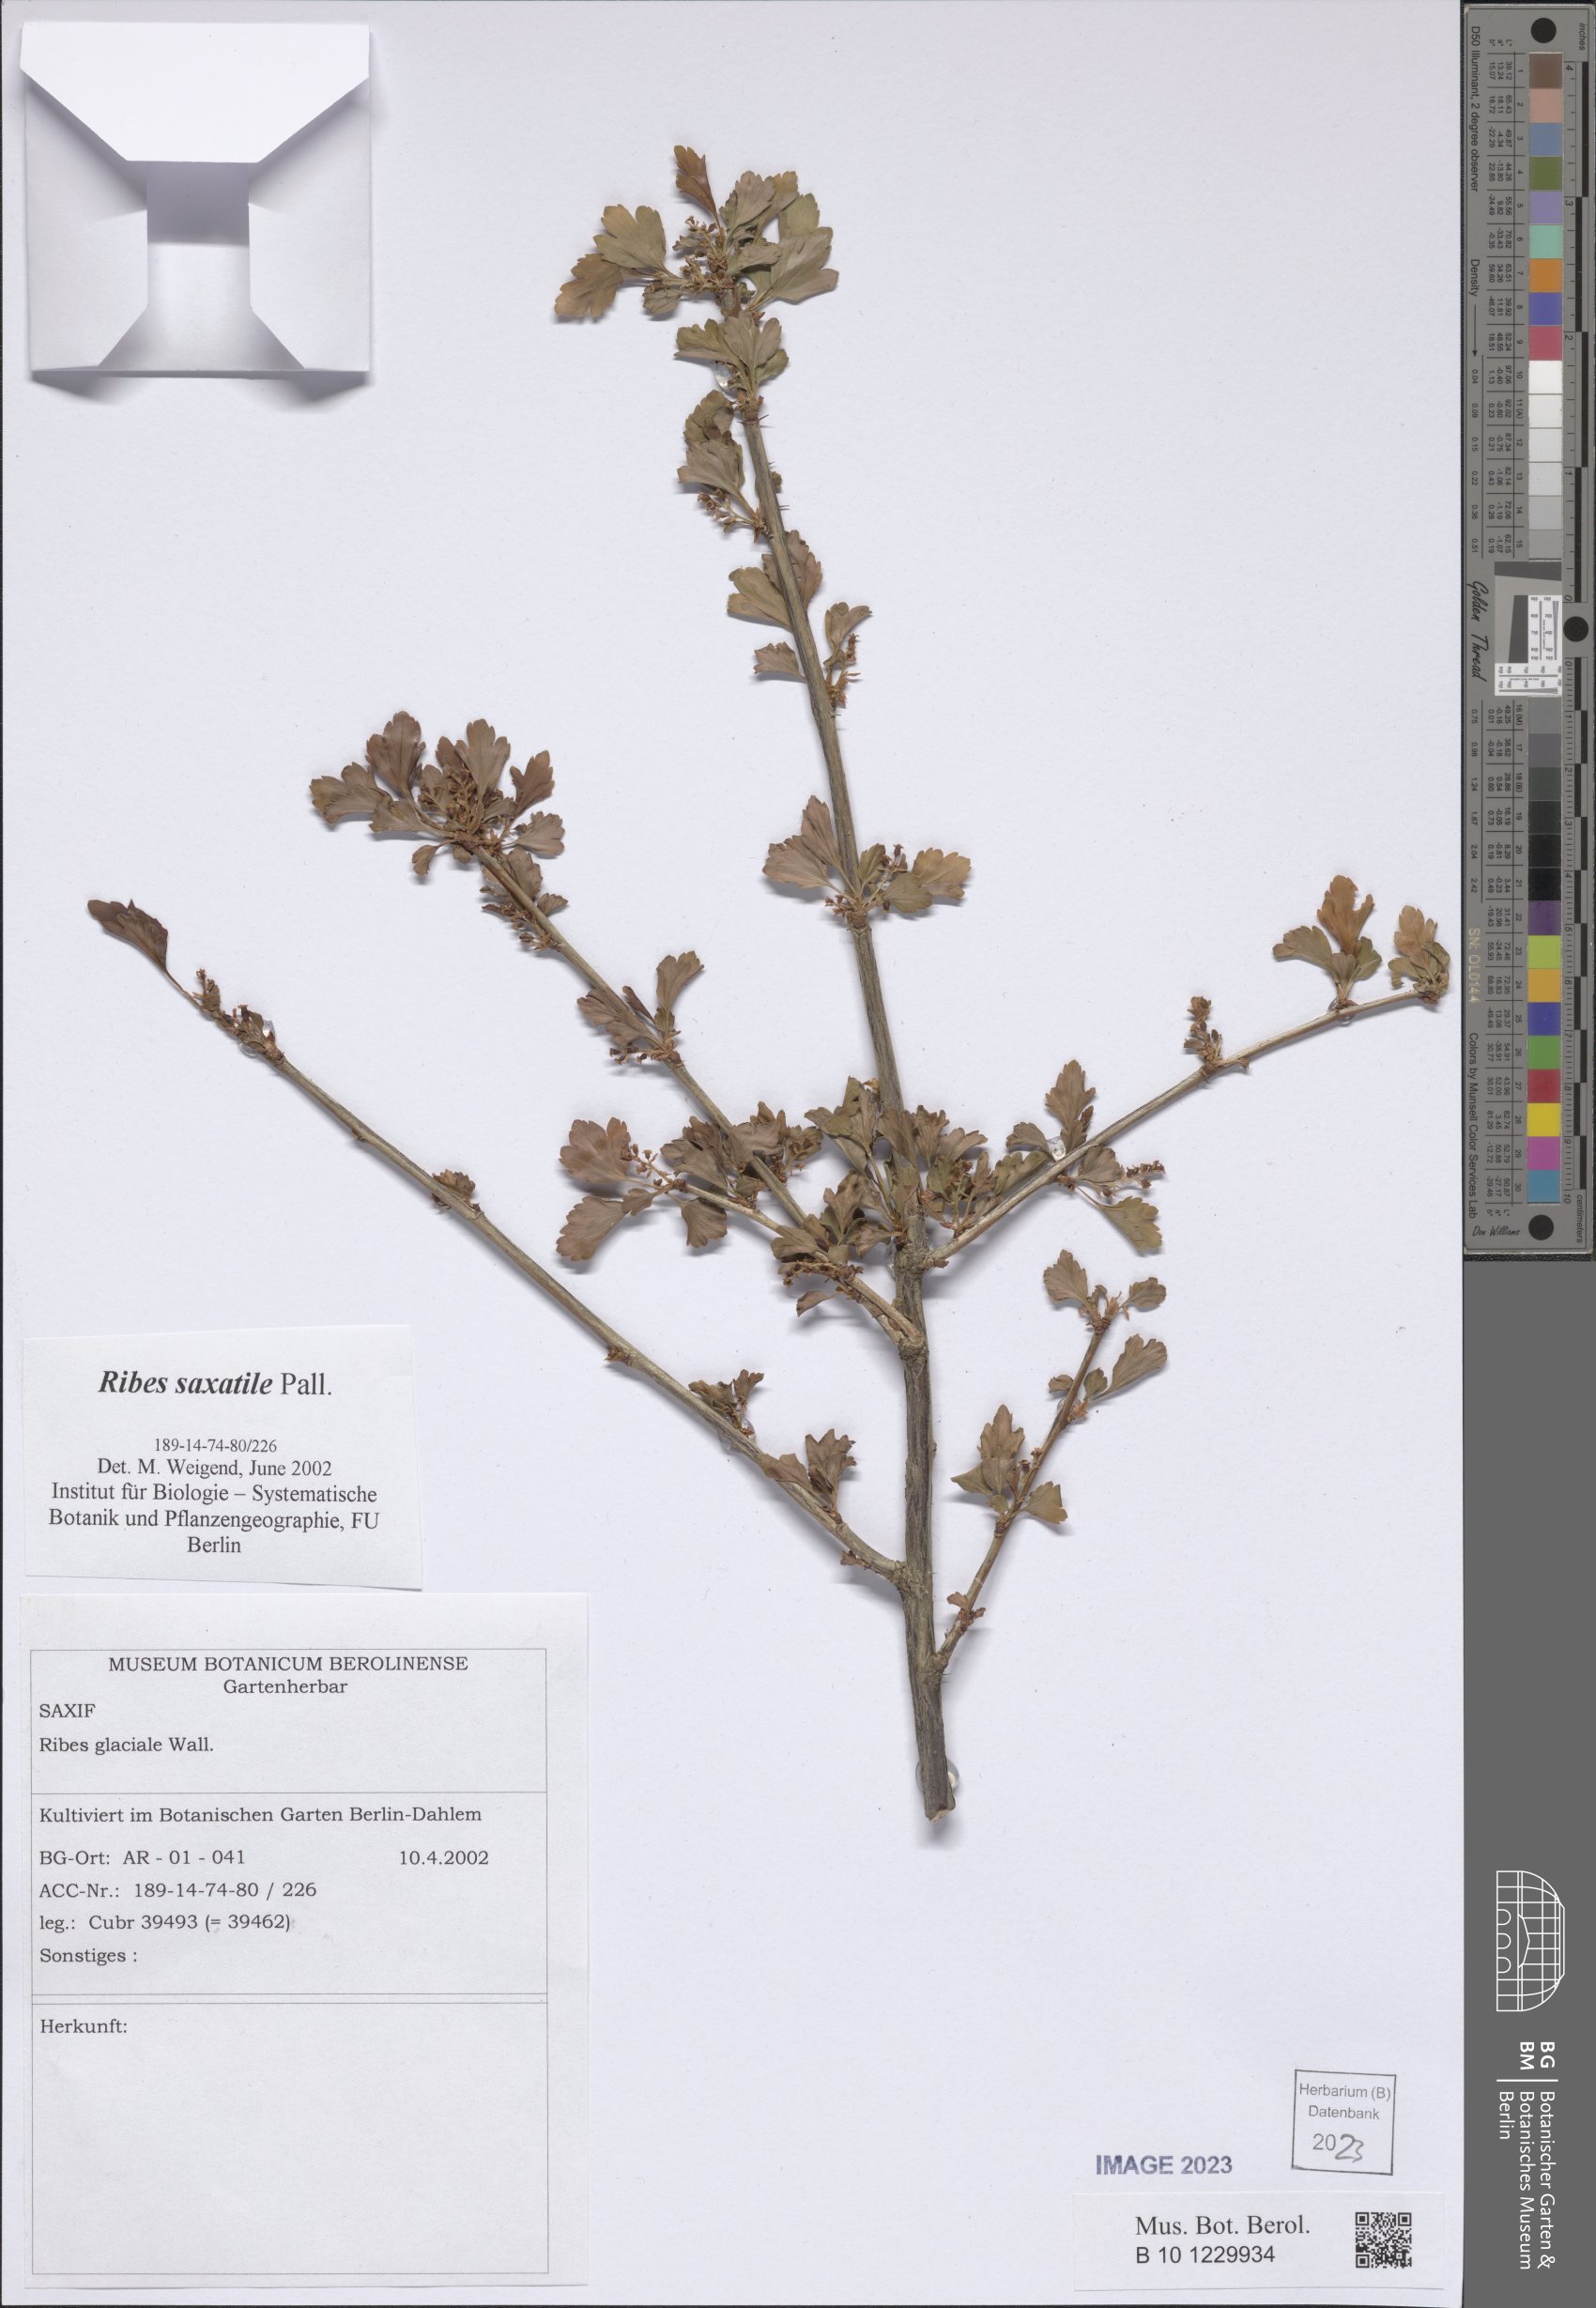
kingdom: Plantae
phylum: Tracheophyta
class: Magnoliopsida
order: Saxifragales
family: Grossulariaceae
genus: Ribes
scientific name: Ribes saxatile
